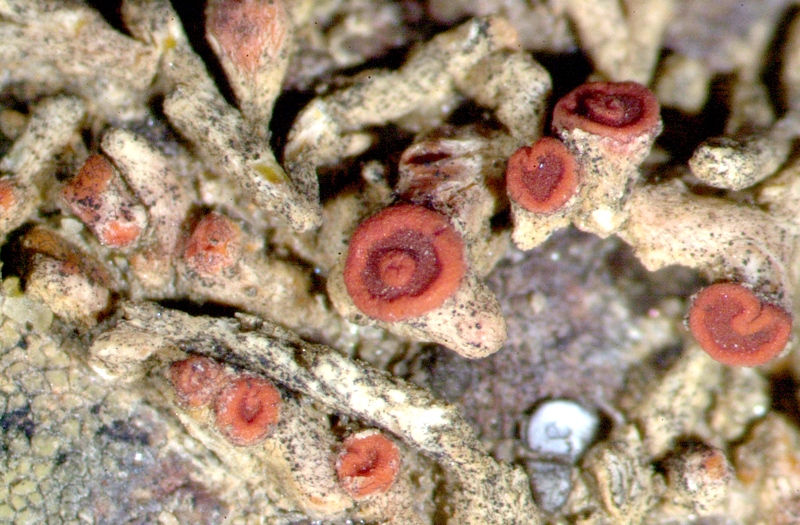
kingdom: Fungi
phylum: Ascomycota
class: Lecanoromycetes
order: Acarosporales
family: Acarosporaceae
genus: Acarospora
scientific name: Acarospora
